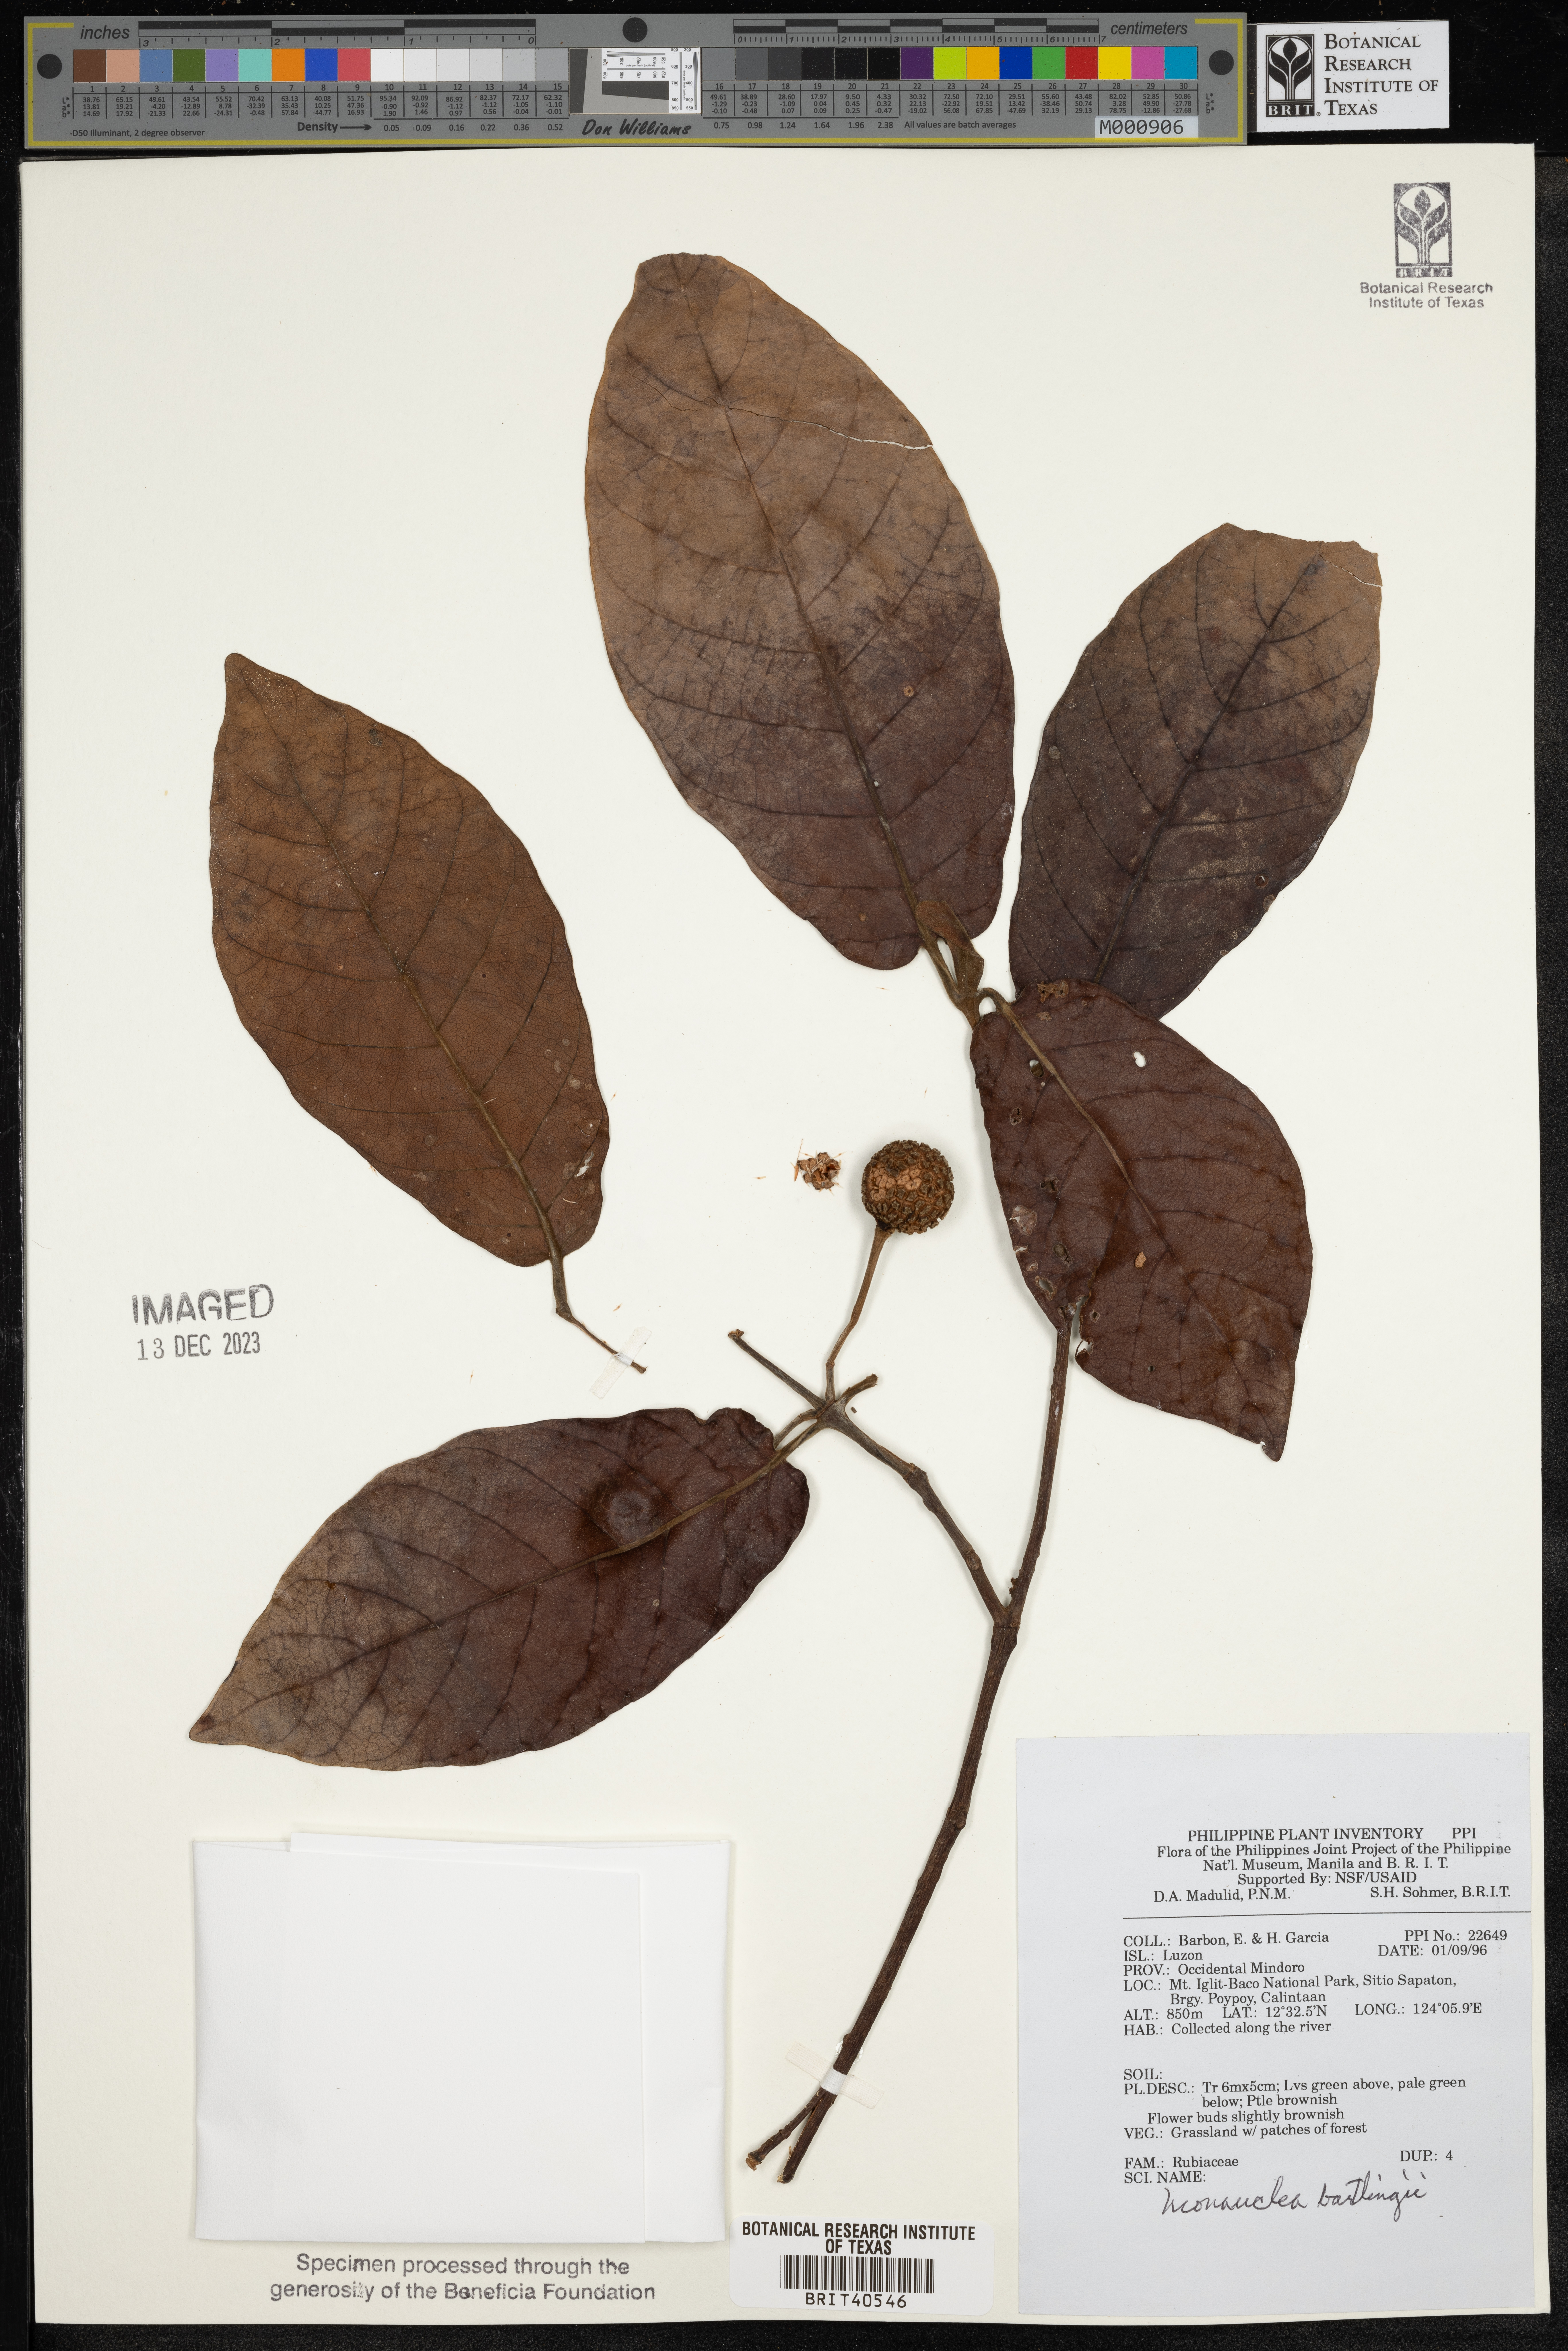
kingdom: Plantae
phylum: Tracheophyta
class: Magnoliopsida
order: Gentianales
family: Rubiaceae
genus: Neonauclea
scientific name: Neonauclea bartlingii
